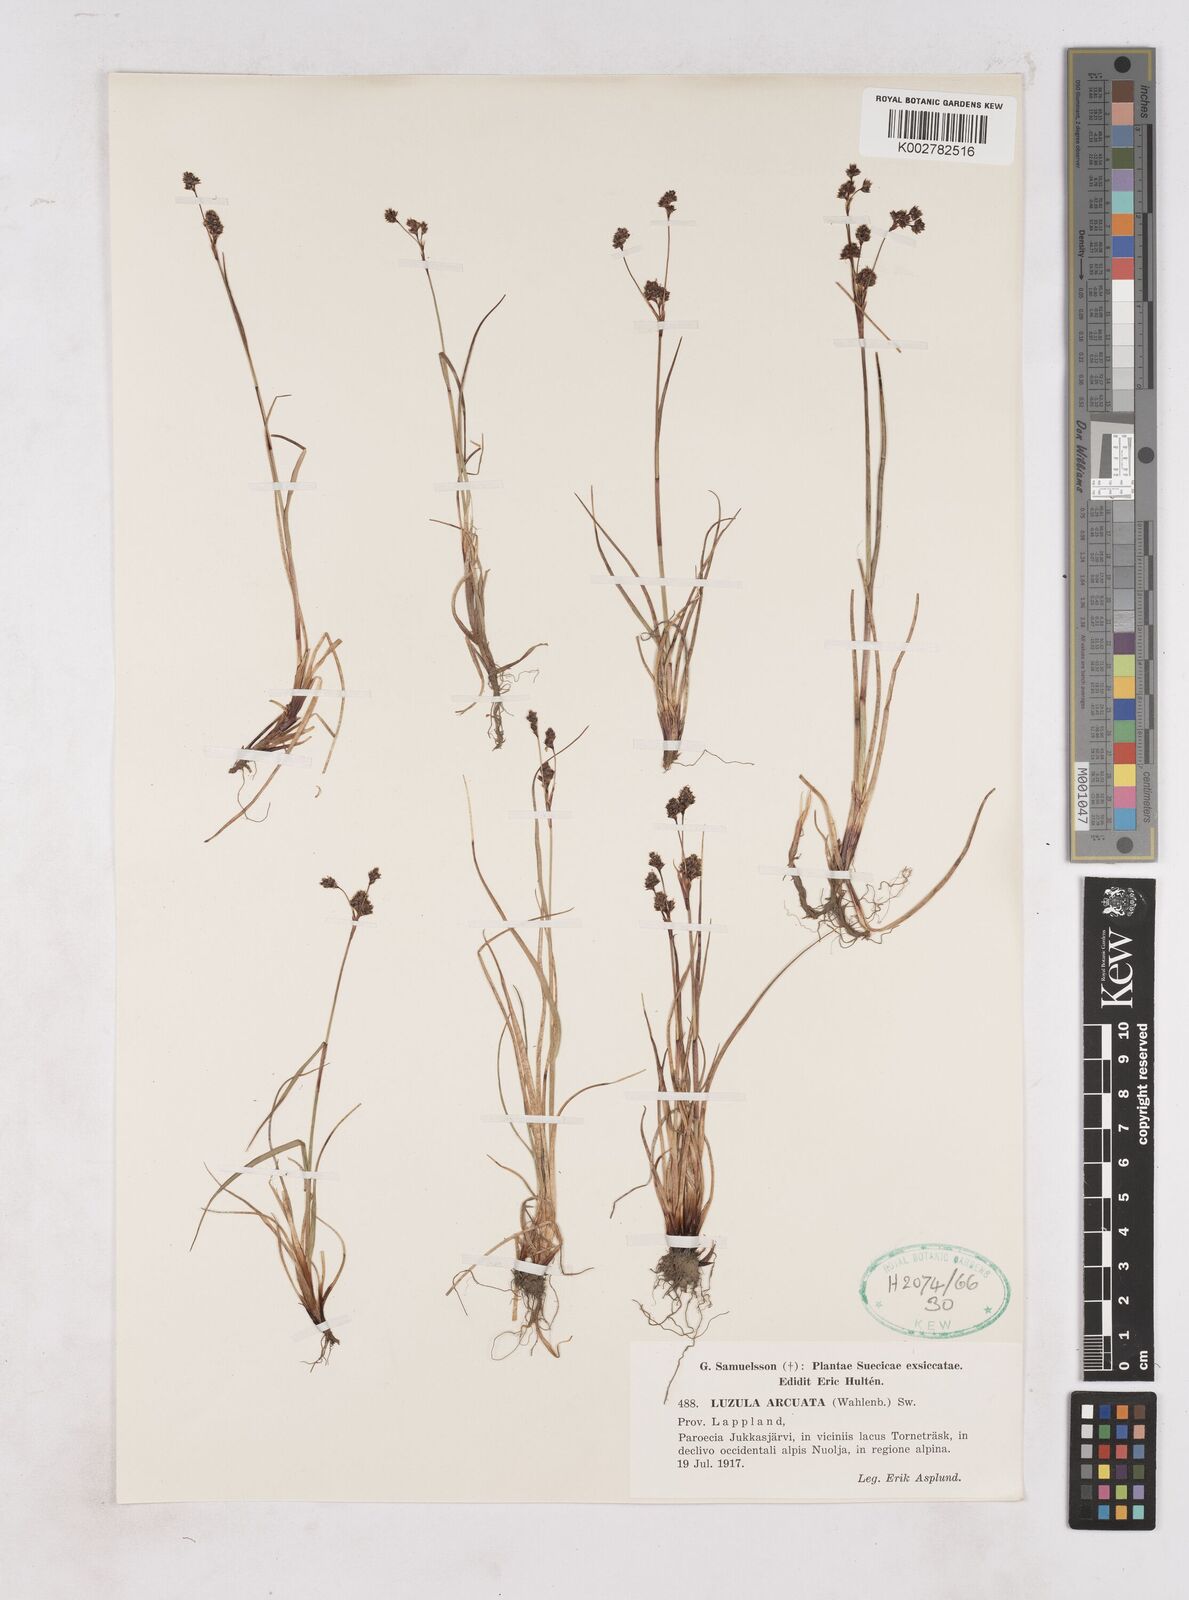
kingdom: Plantae
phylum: Tracheophyta
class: Liliopsida
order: Poales
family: Juncaceae
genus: Luzula
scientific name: Luzula arcuata
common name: Curved wood-rush
